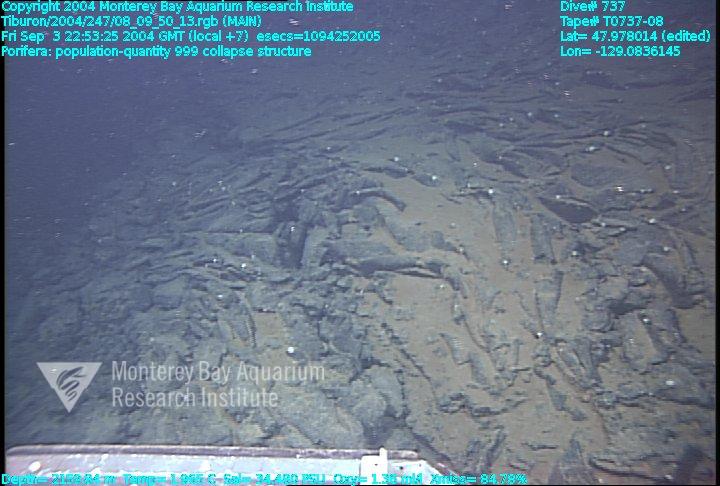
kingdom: Animalia
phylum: Porifera
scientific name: Porifera
